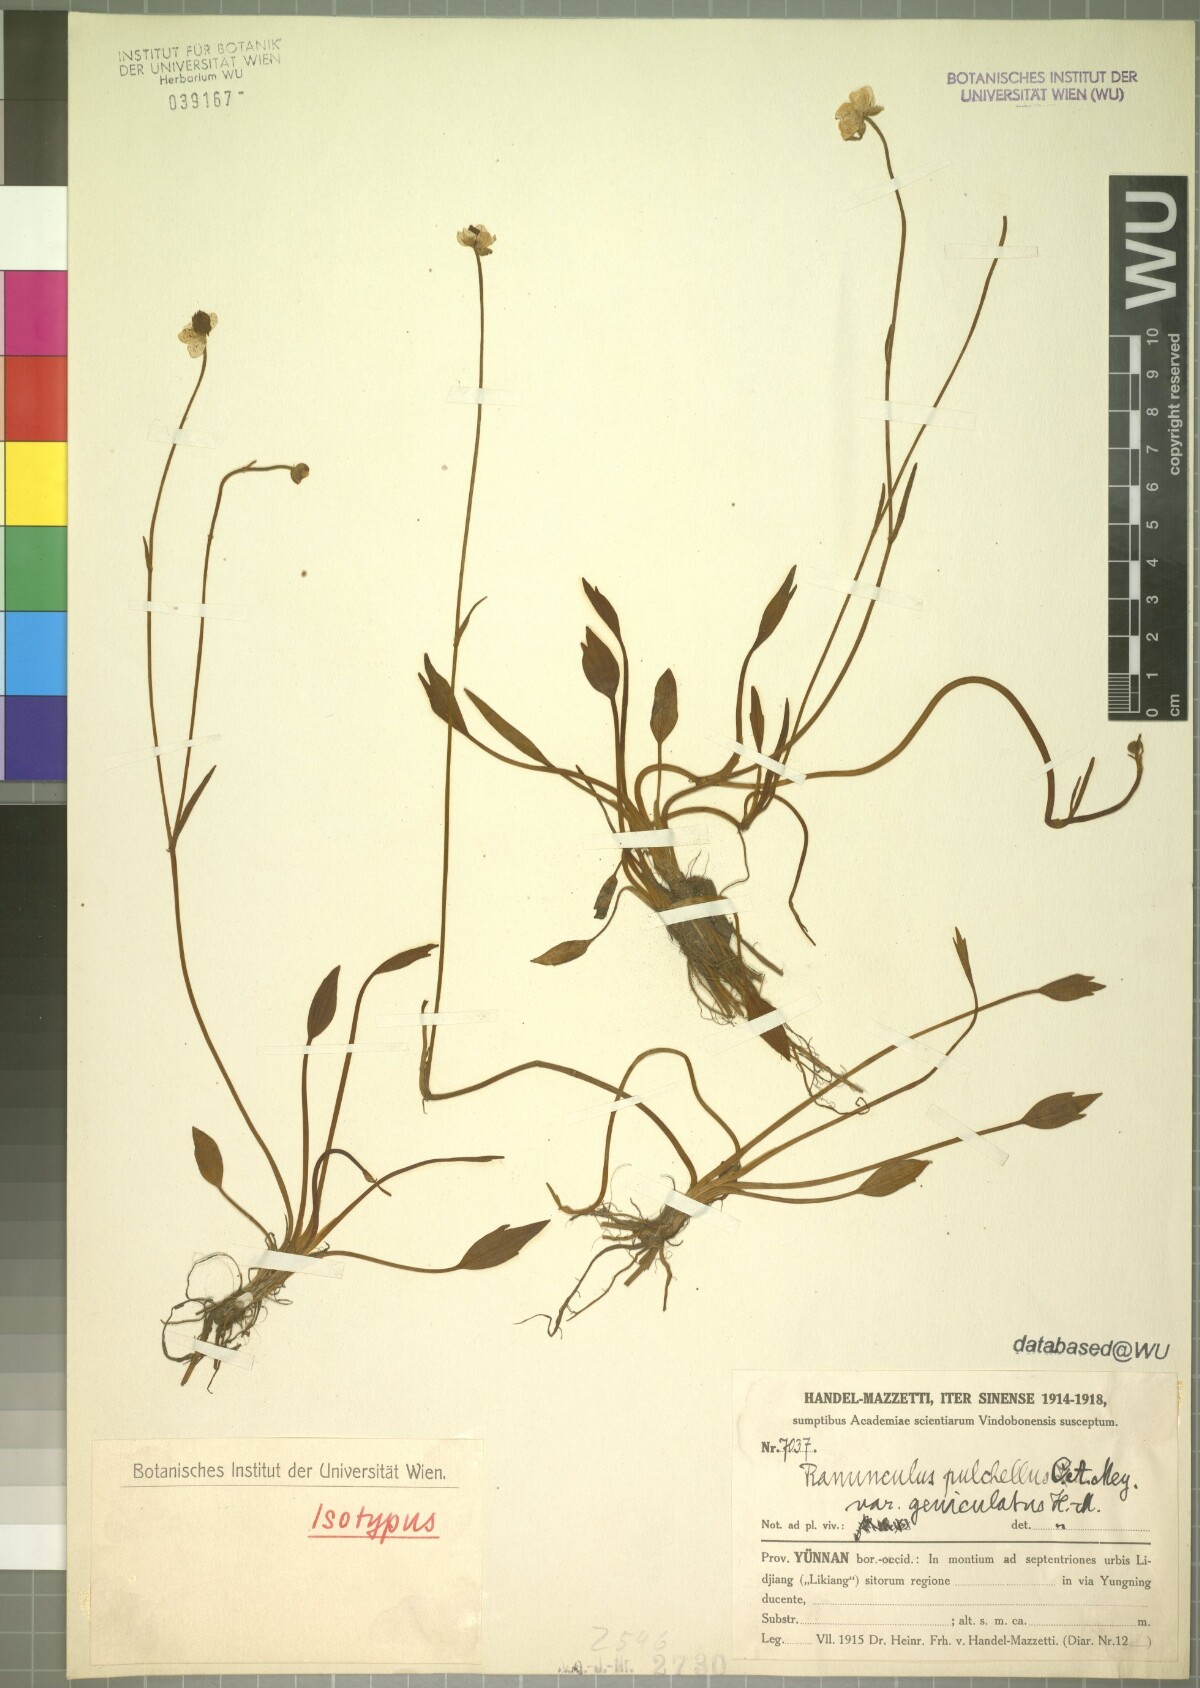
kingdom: Plantae
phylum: Tracheophyta
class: Magnoliopsida
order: Ranunculales
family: Ranunculaceae
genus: Ranunculus
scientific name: Ranunculus mazzettii
